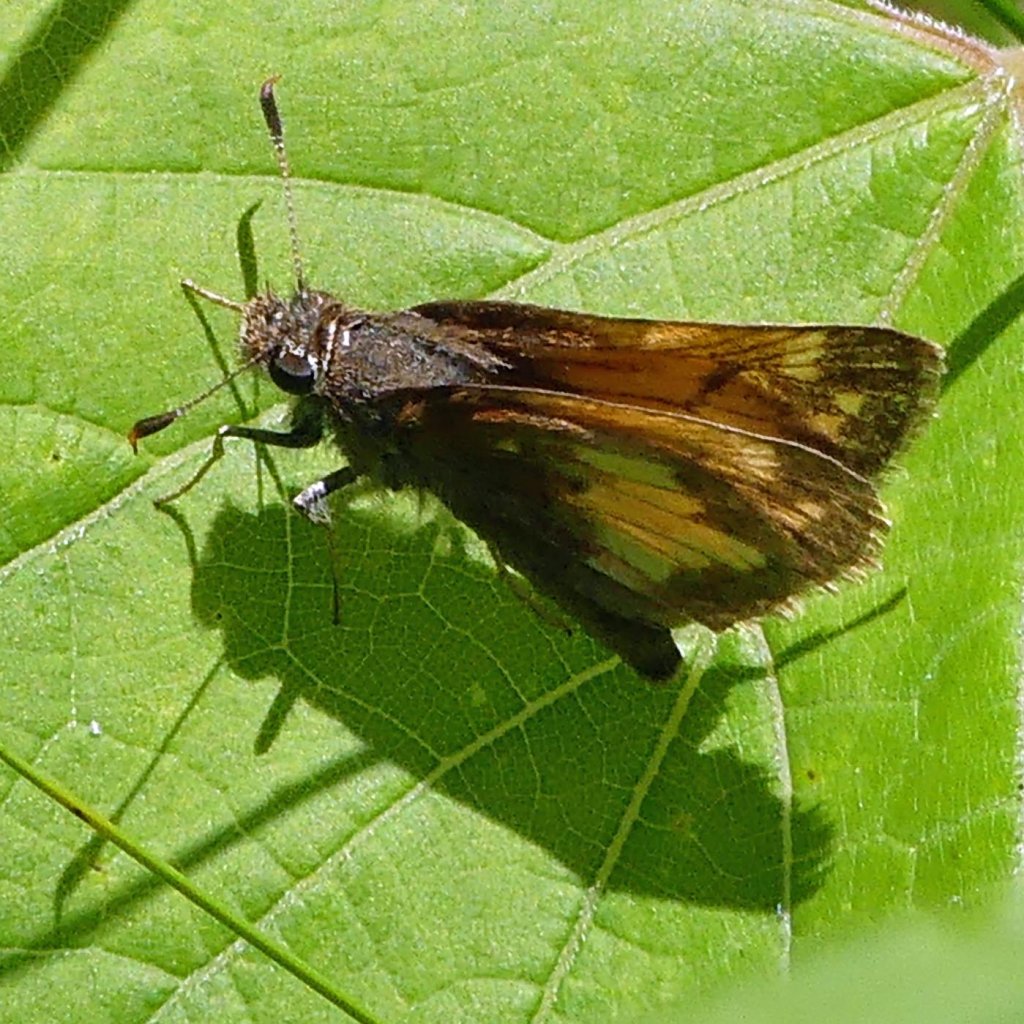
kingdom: Animalia
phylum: Arthropoda
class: Insecta
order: Lepidoptera
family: Hesperiidae
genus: Lon
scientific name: Lon hobomok
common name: Hobomok Skipper
